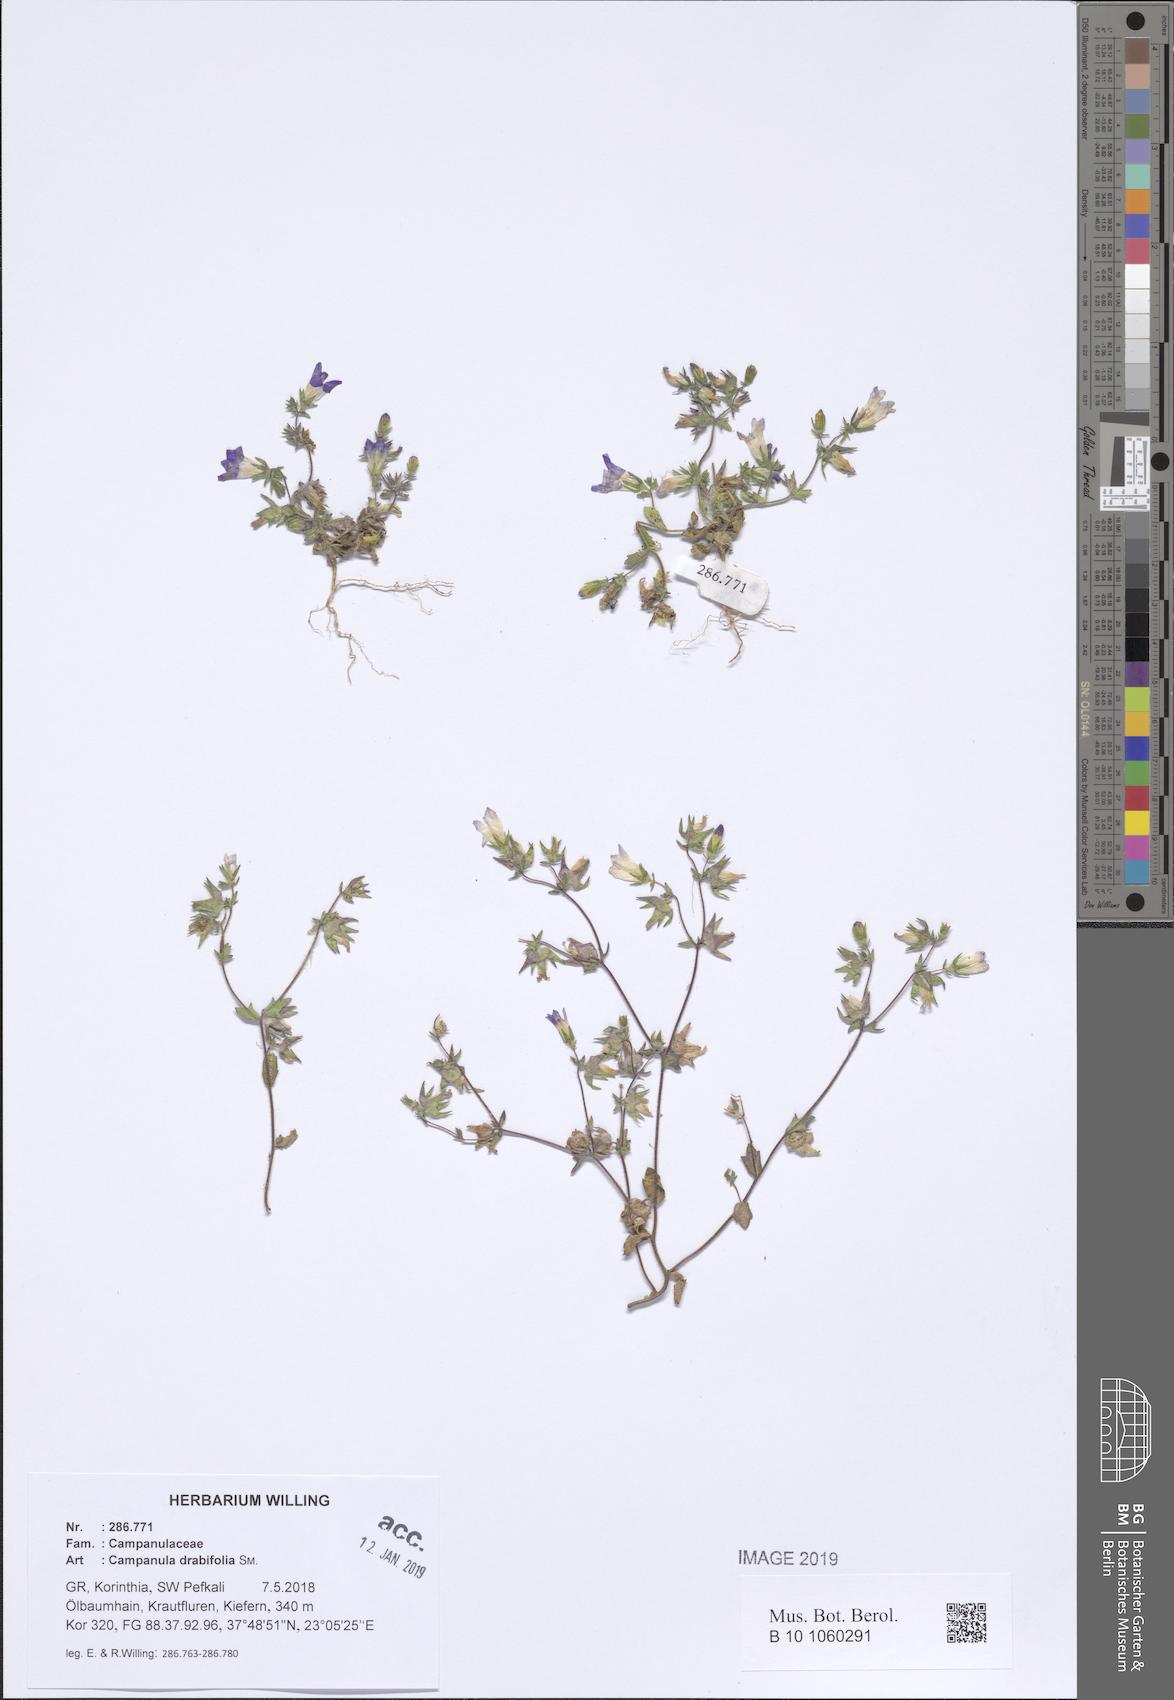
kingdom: Plantae
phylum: Tracheophyta
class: Magnoliopsida
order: Asterales
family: Campanulaceae
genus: Campanula
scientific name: Campanula drabifolia
